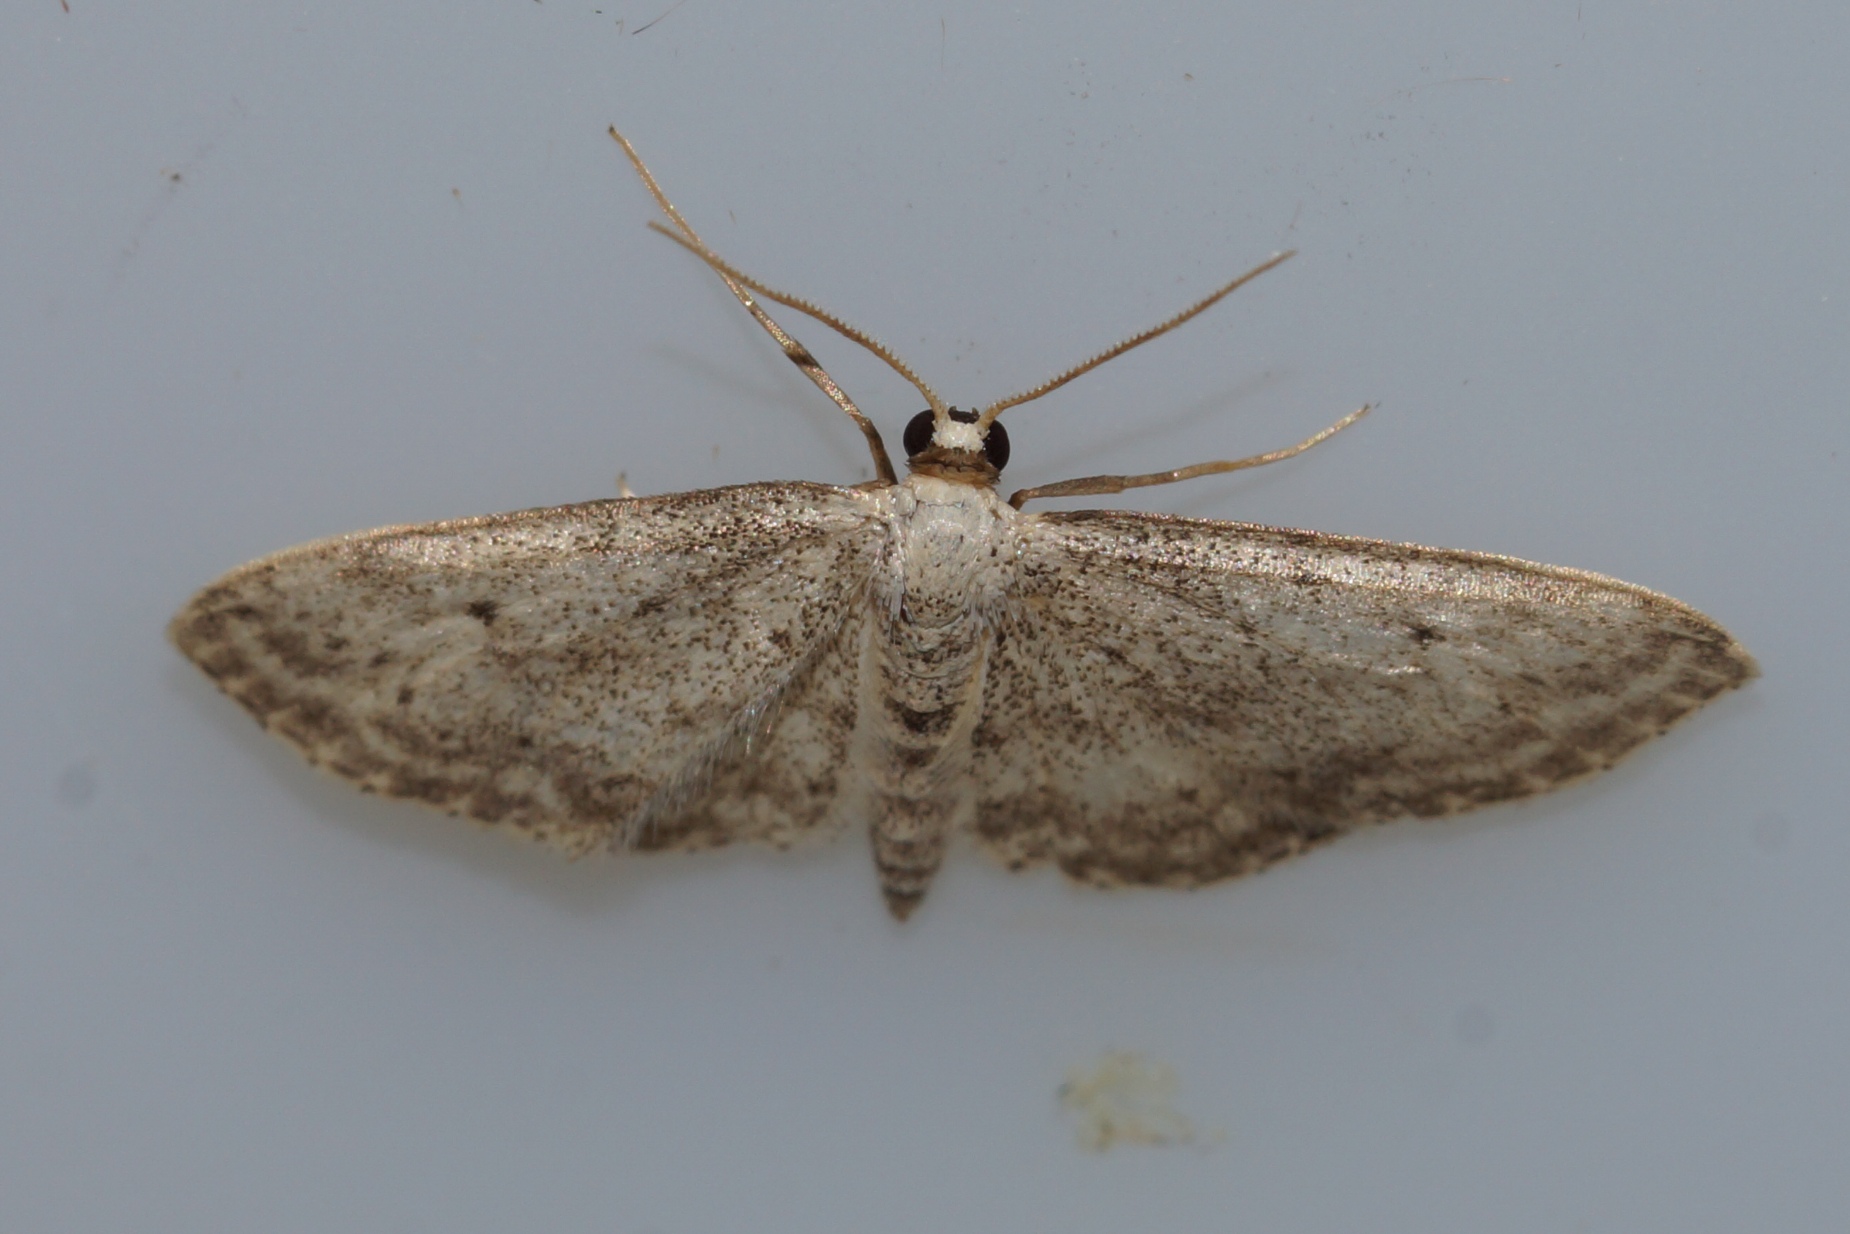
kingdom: Animalia
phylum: Arthropoda
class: Insecta
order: Lepidoptera
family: Geometridae
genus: Idaea
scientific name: Idaea seriata
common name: Gråplettet løvmåler
